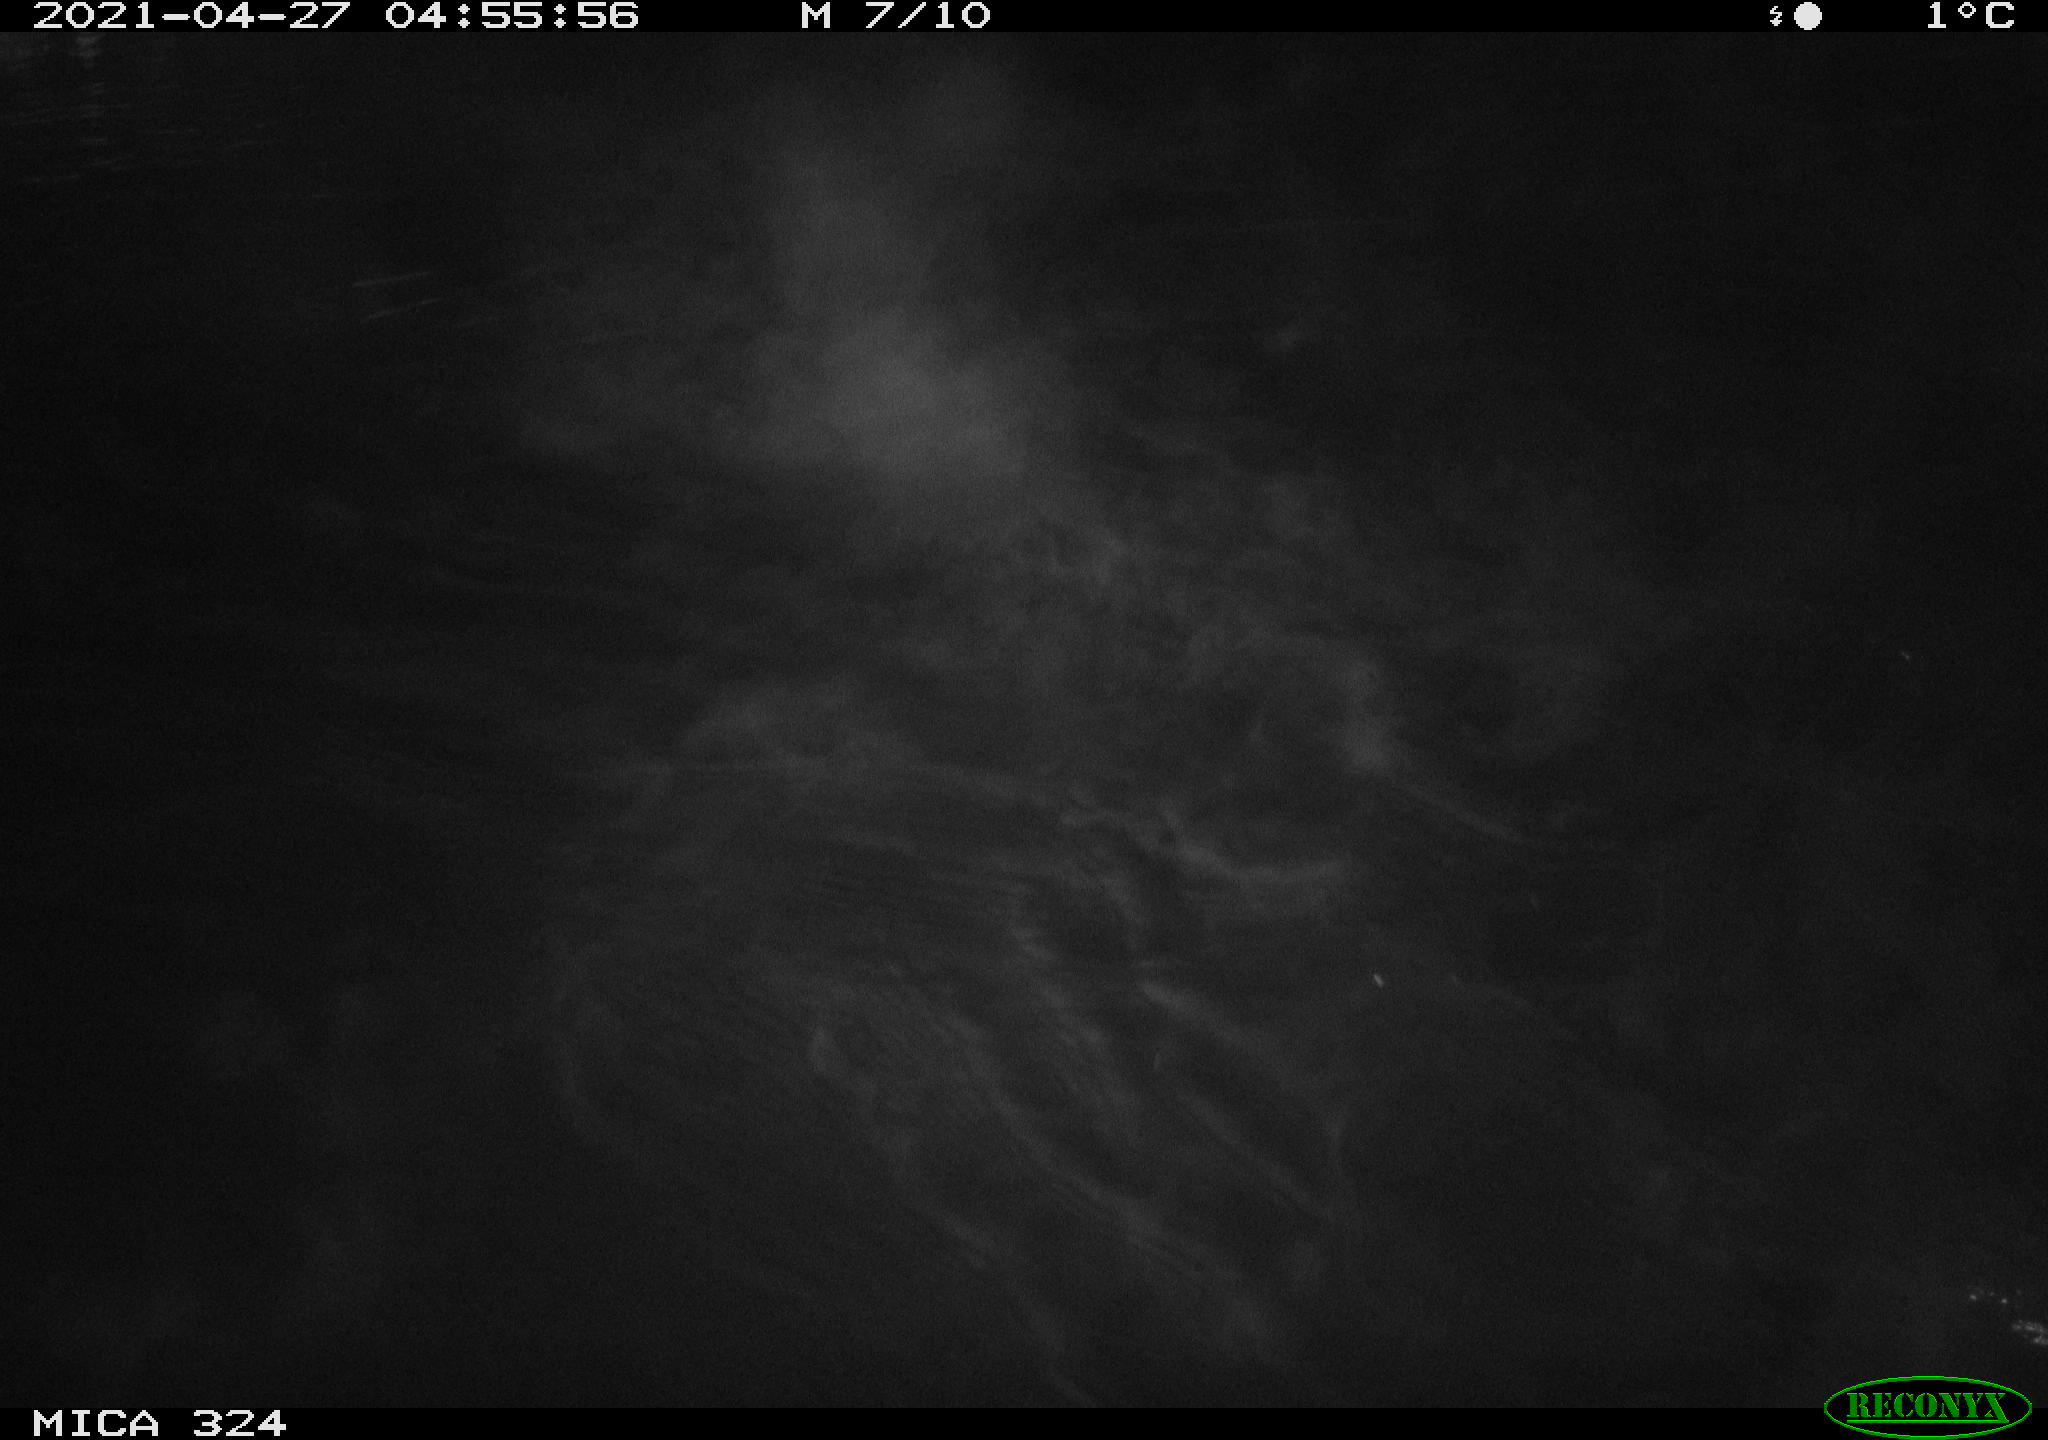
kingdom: Animalia
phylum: Chordata
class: Aves
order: Anseriformes
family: Anatidae
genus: Anas
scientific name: Anas platyrhynchos
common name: Mallard
